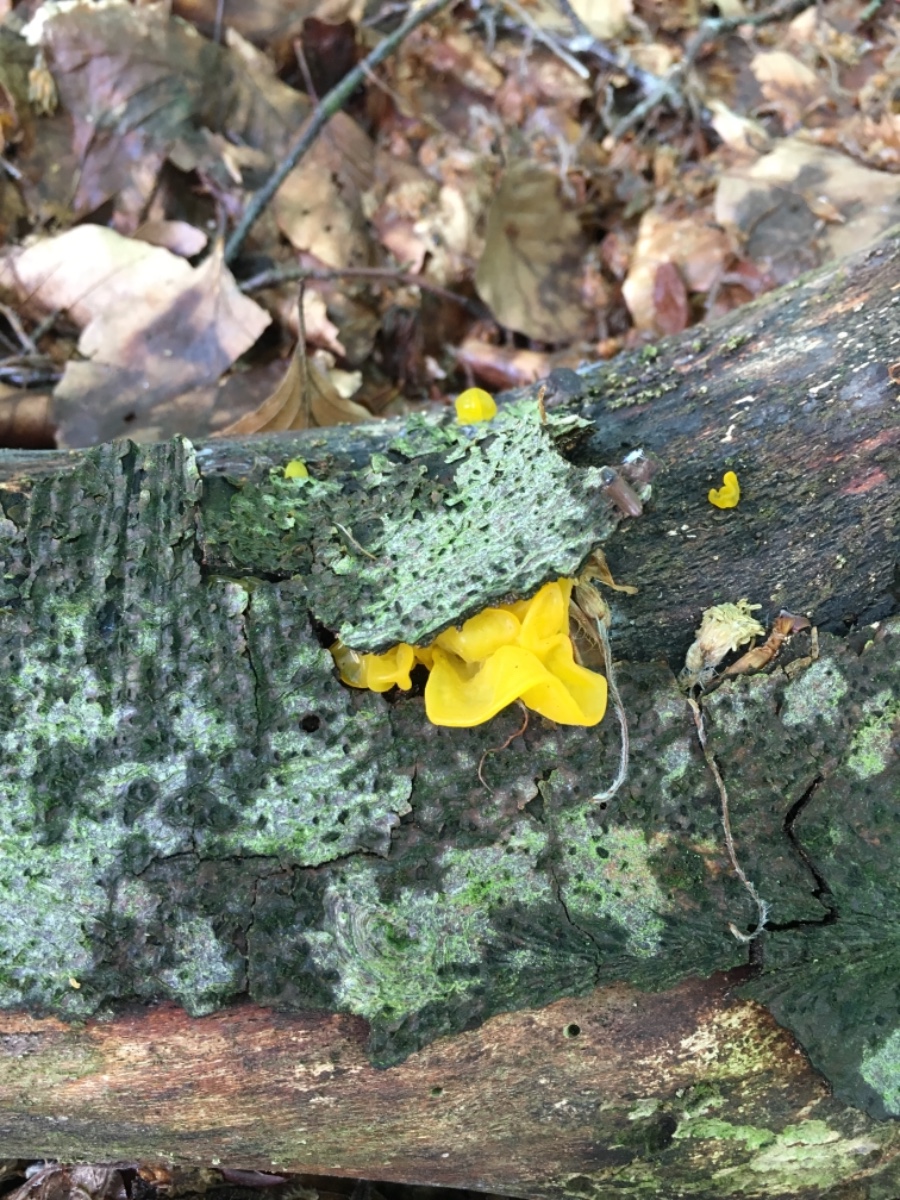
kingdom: Fungi
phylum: Basidiomycota
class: Tremellomycetes
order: Tremellales
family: Tremellaceae
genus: Tremella
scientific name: Tremella mesenterica
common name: gul bævresvamp
